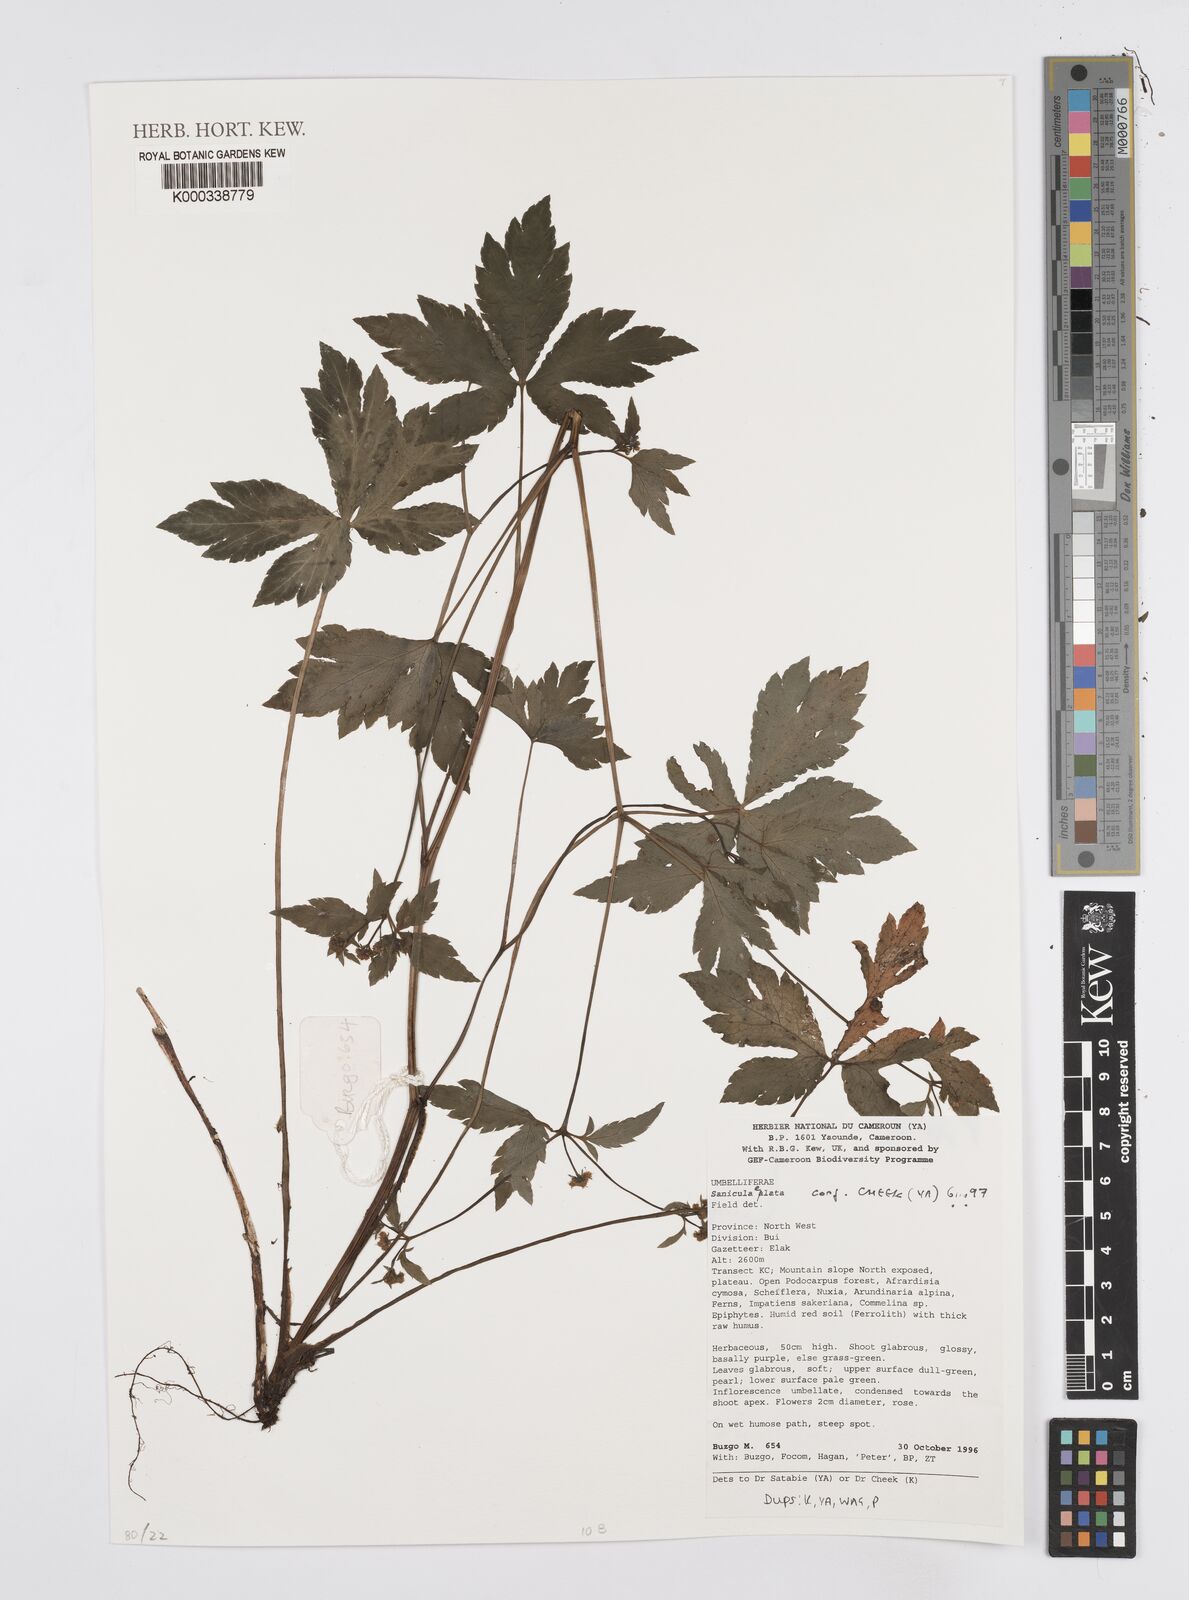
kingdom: Plantae
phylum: Tracheophyta
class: Magnoliopsida
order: Apiales
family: Apiaceae
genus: Sanicula
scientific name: Sanicula
